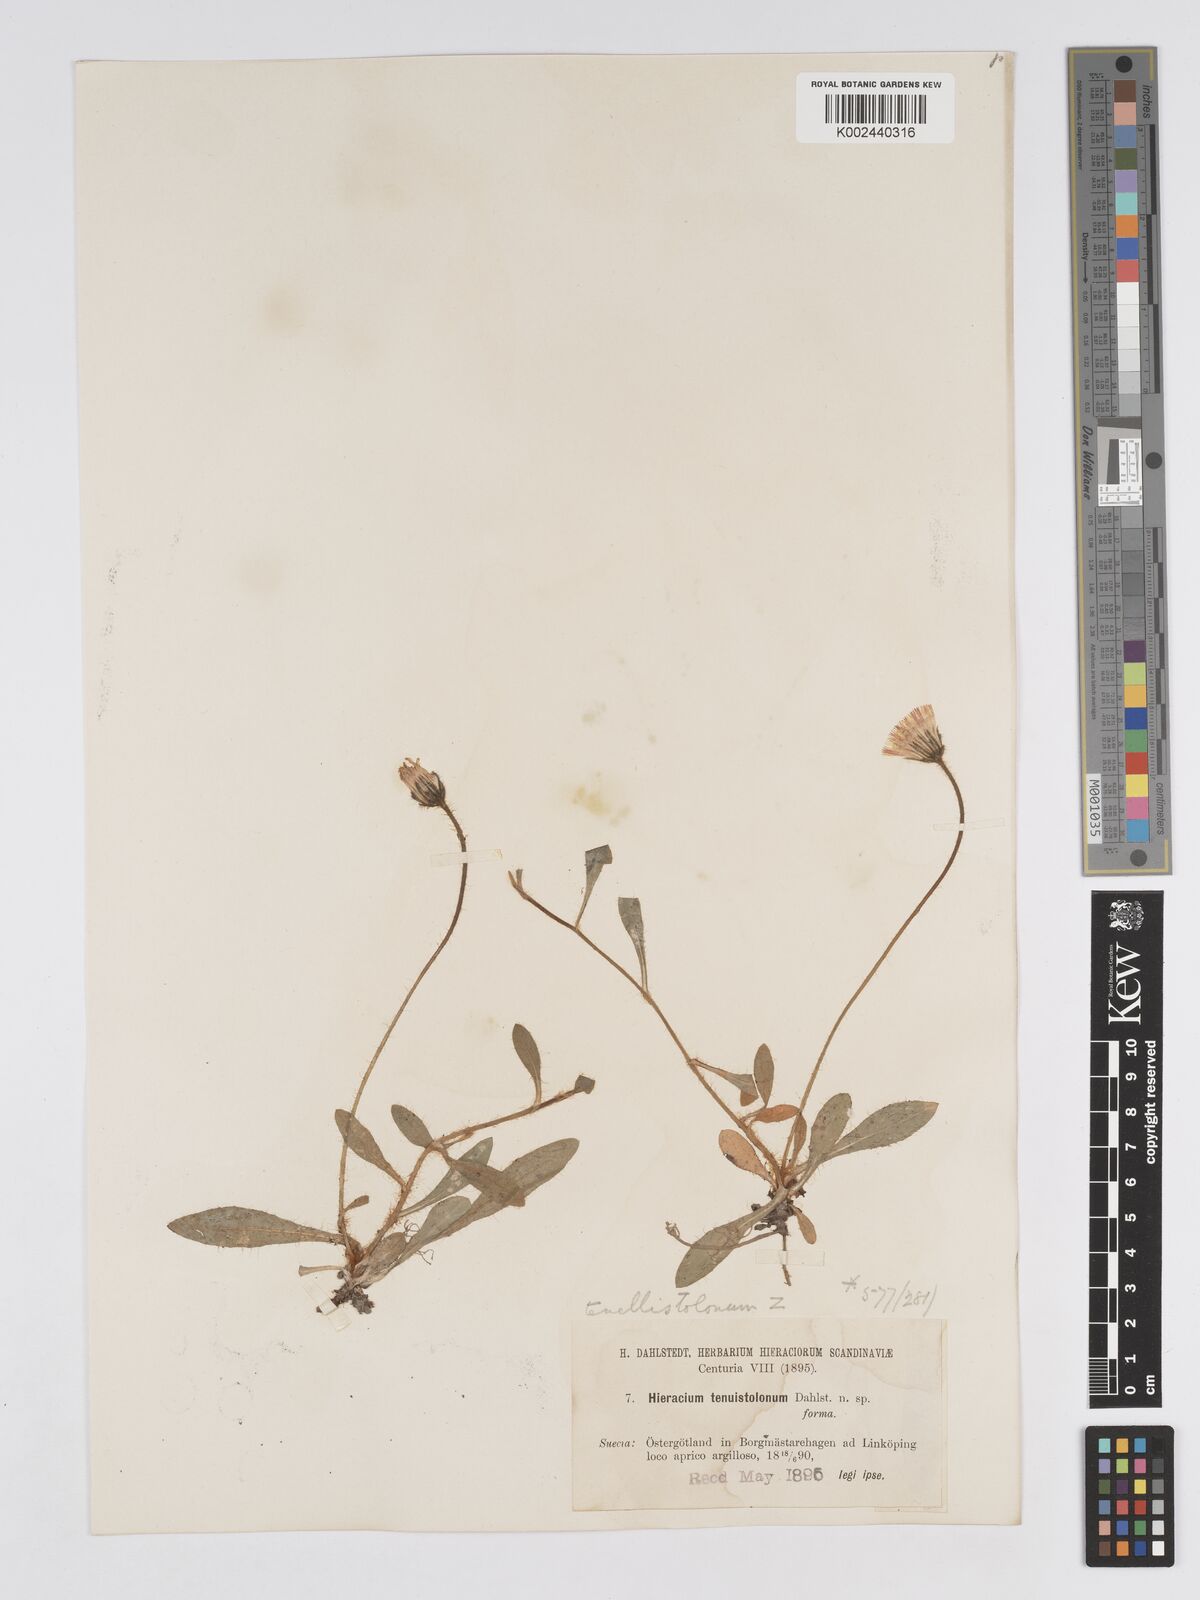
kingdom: Plantae
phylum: Tracheophyta
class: Magnoliopsida
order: Asterales
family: Asteraceae
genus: Pilosella
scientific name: Pilosella officinarum
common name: Mouse-ear hawkweed
